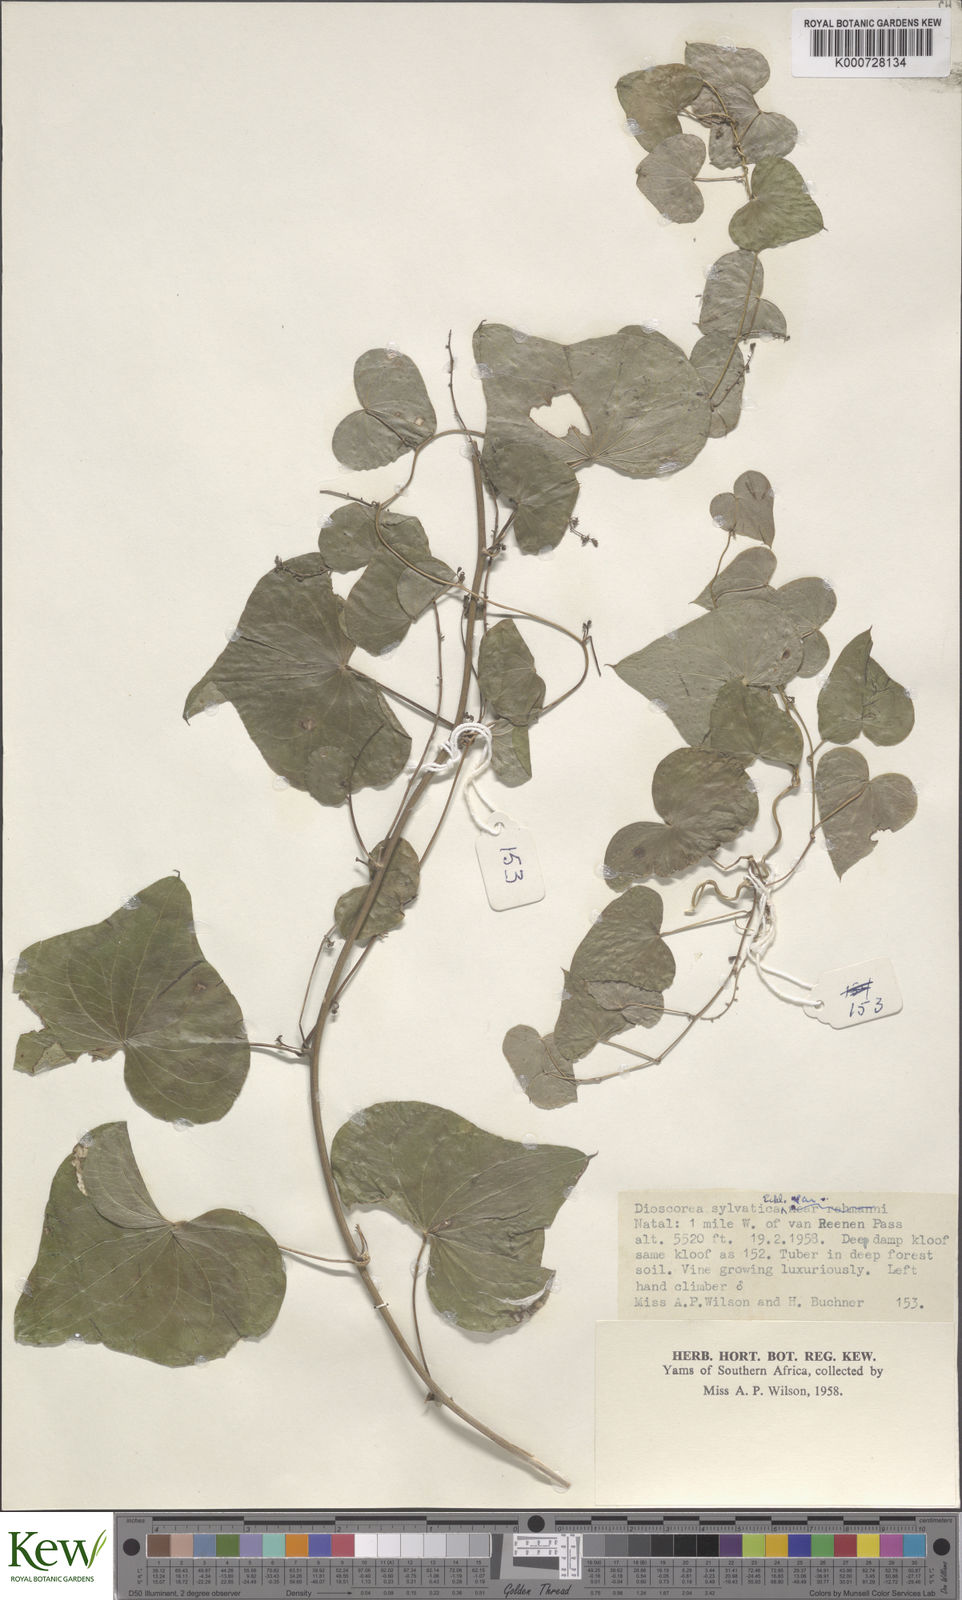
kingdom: Plantae
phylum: Tracheophyta
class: Liliopsida
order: Dioscoreales
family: Dioscoreaceae
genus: Dioscorea
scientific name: Dioscorea sylvatica
